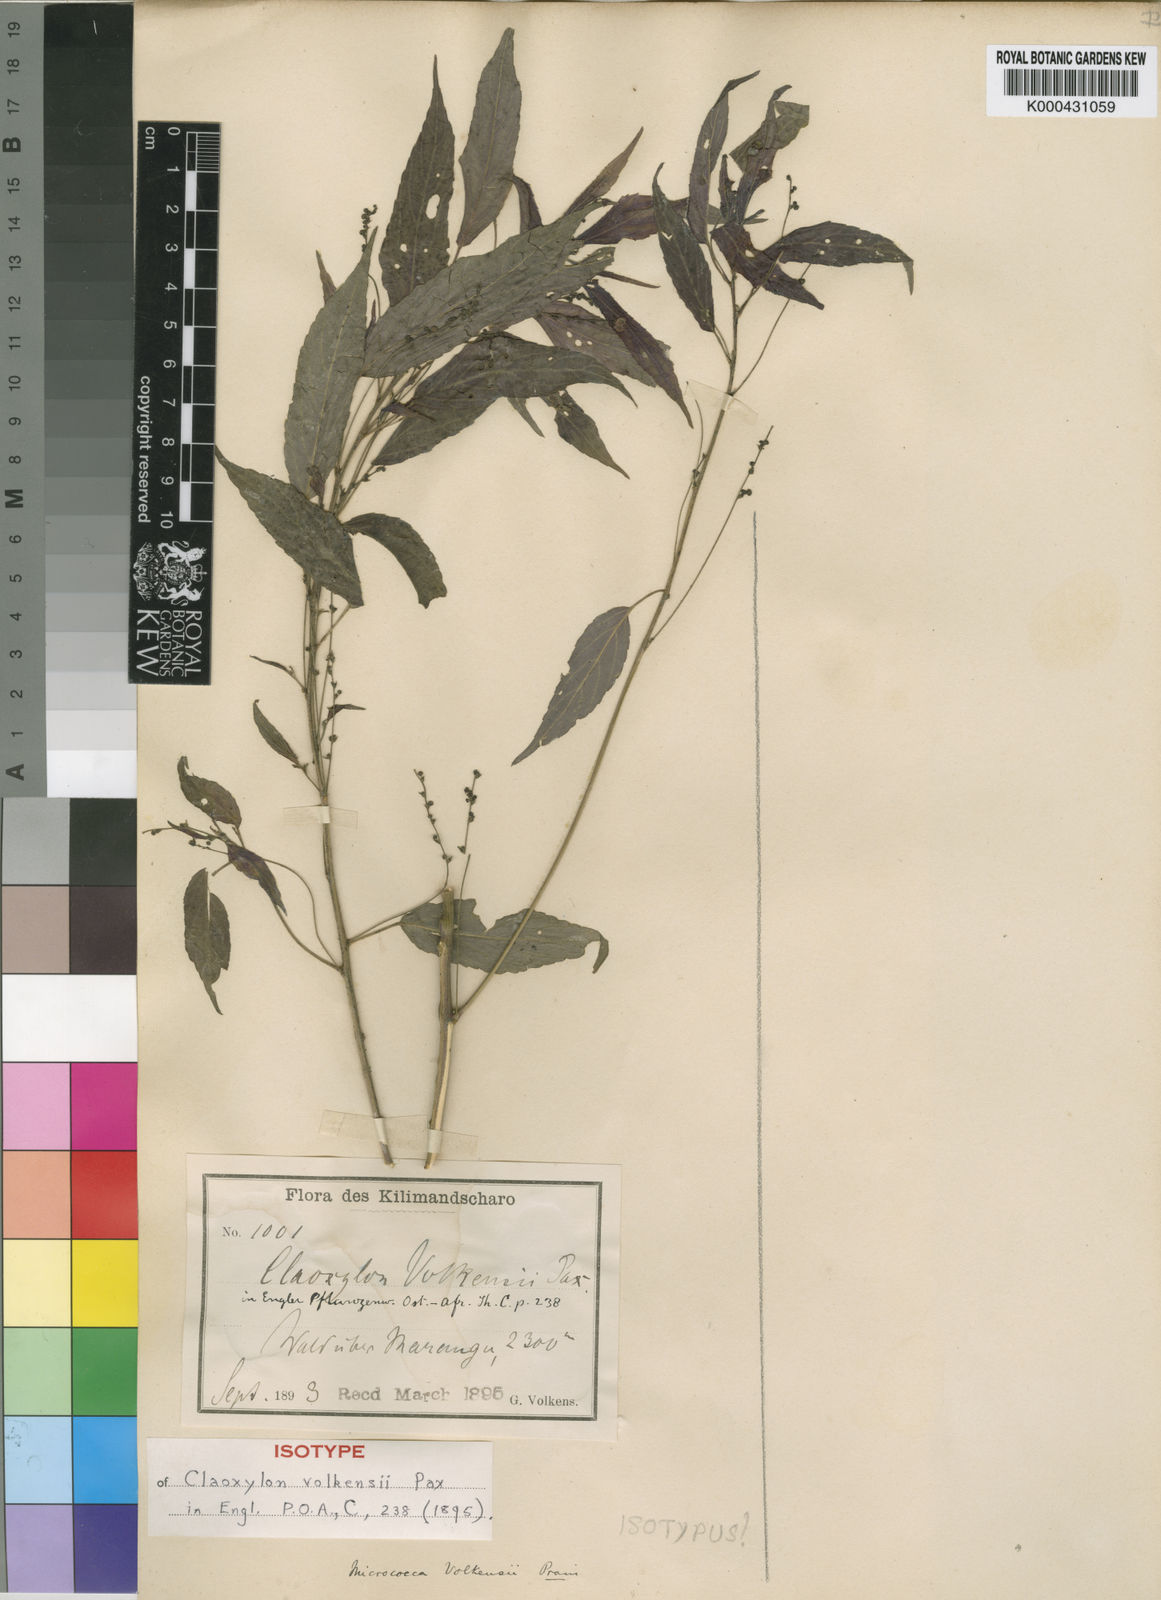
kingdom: Plantae
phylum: Tracheophyta
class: Magnoliopsida
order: Malpighiales
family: Euphorbiaceae
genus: Micrococca
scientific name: Micrococca volkensii
